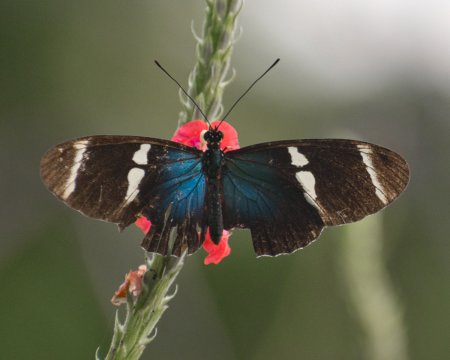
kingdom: Animalia
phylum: Arthropoda
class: Insecta
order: Lepidoptera
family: Nymphalidae
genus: Heliconius
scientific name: Heliconius sara
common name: Sara Longwing
